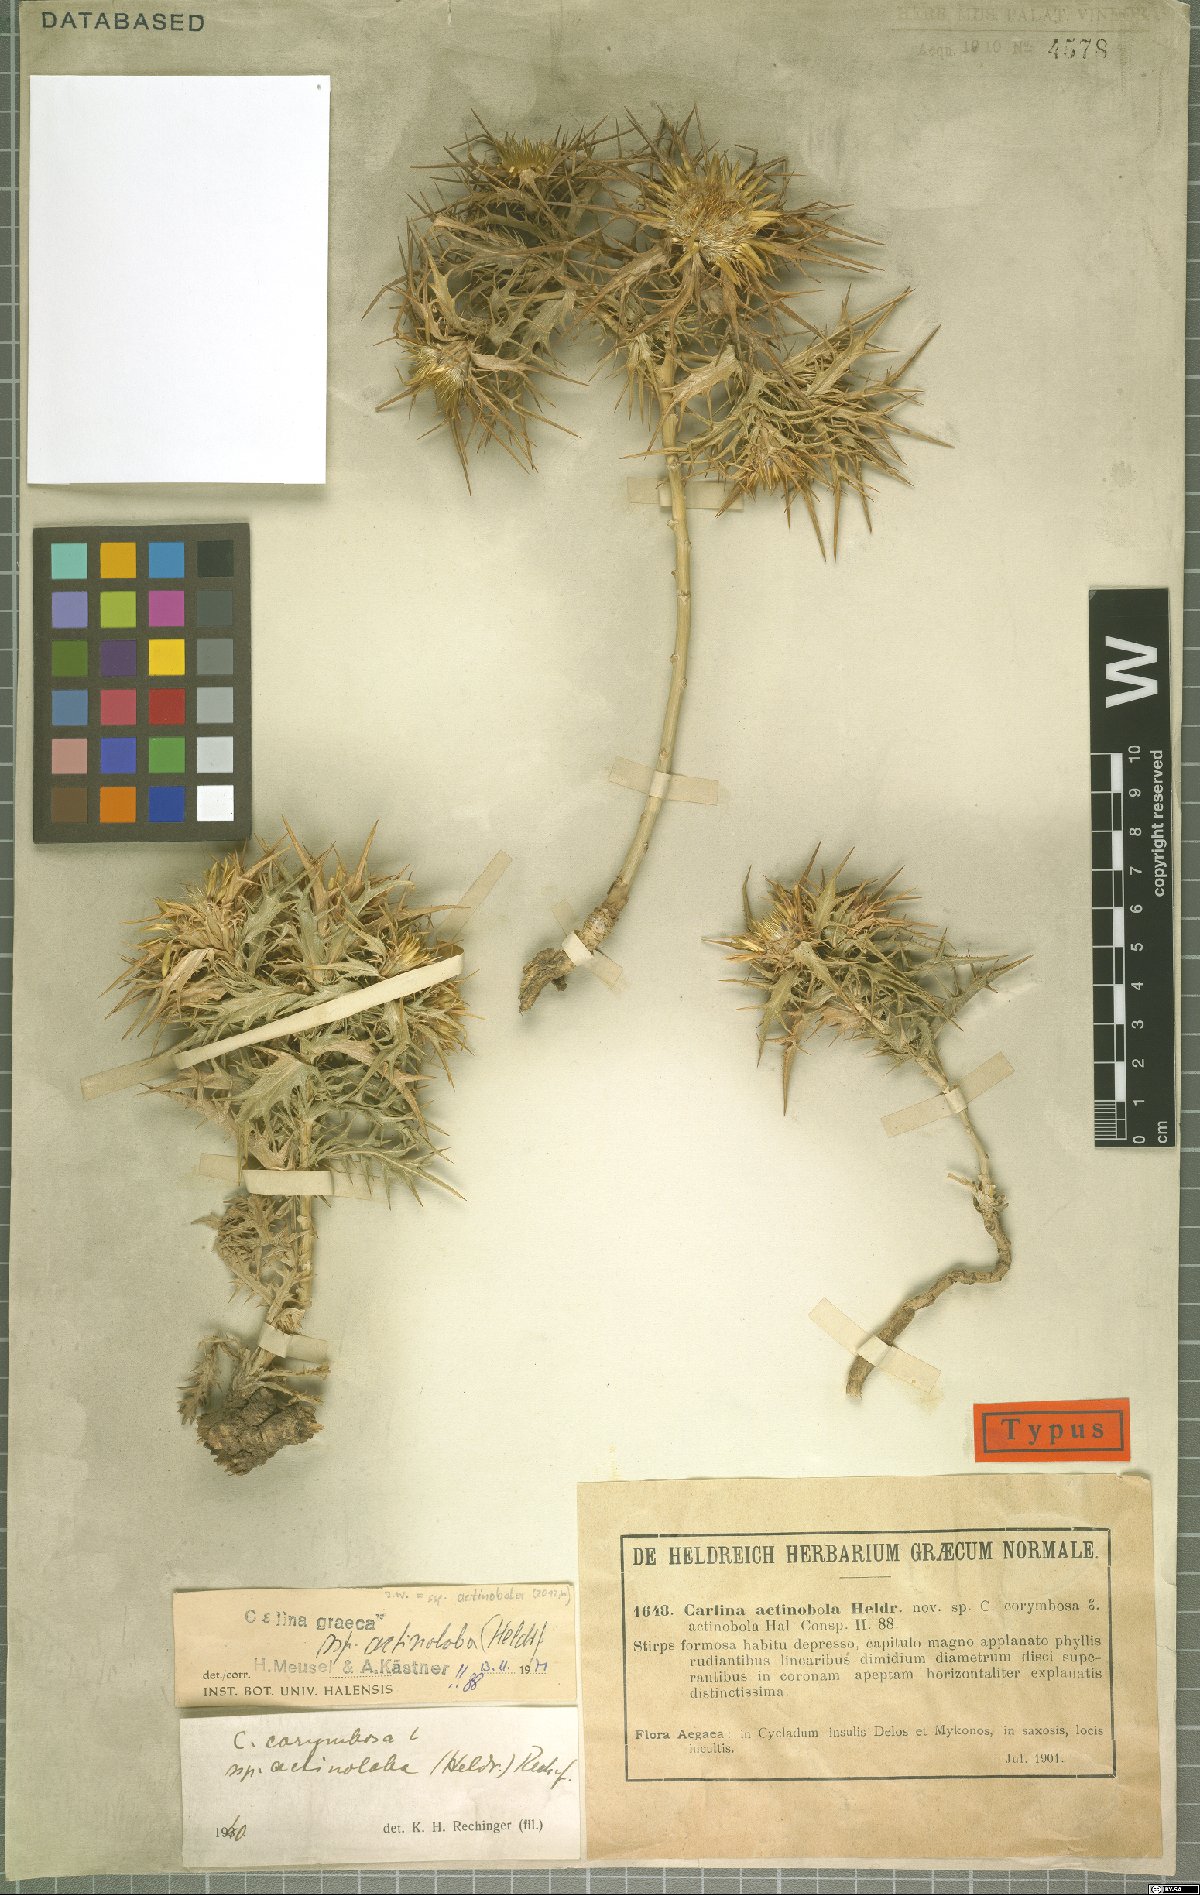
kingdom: Plantae
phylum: Tracheophyta
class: Magnoliopsida
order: Asterales
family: Asteraceae
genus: Carlina
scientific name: Carlina graeca
